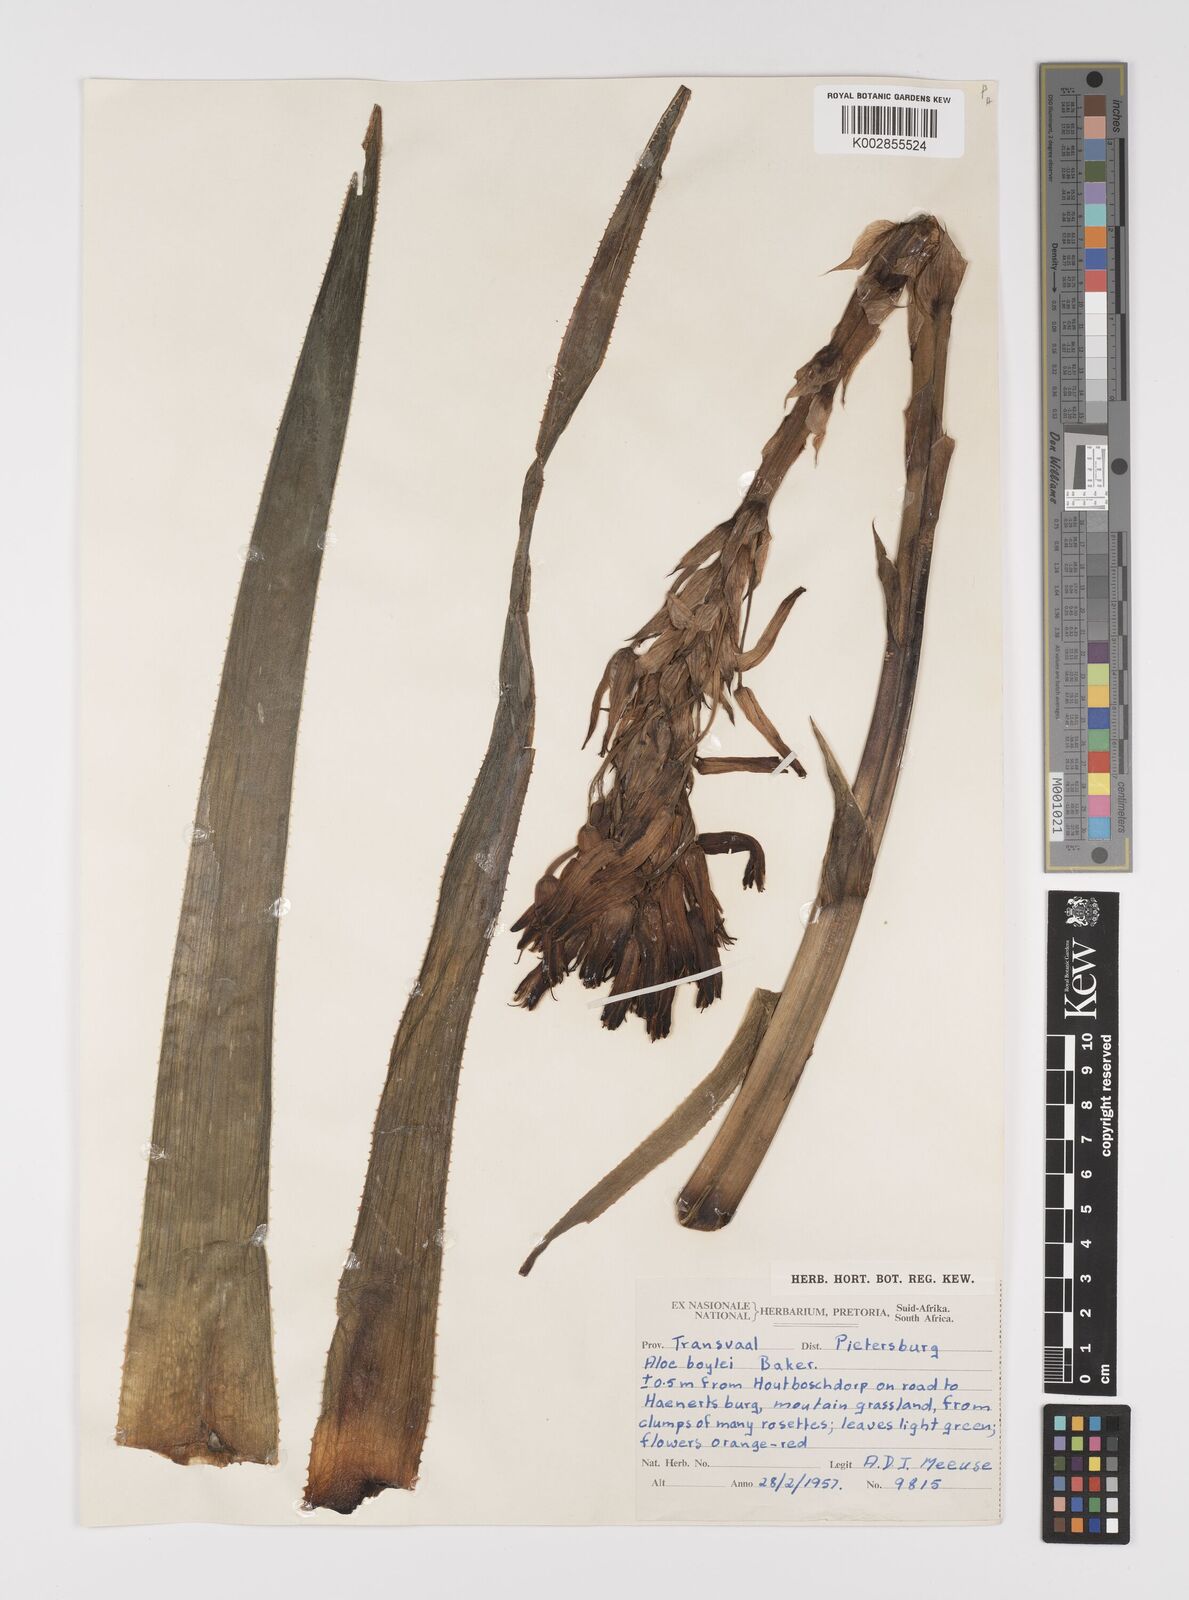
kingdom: Plantae
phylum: Tracheophyta
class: Liliopsida
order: Asparagales
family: Asphodelaceae
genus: Aloe
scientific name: Aloe boylei
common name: Broad-leaved grass aloe
